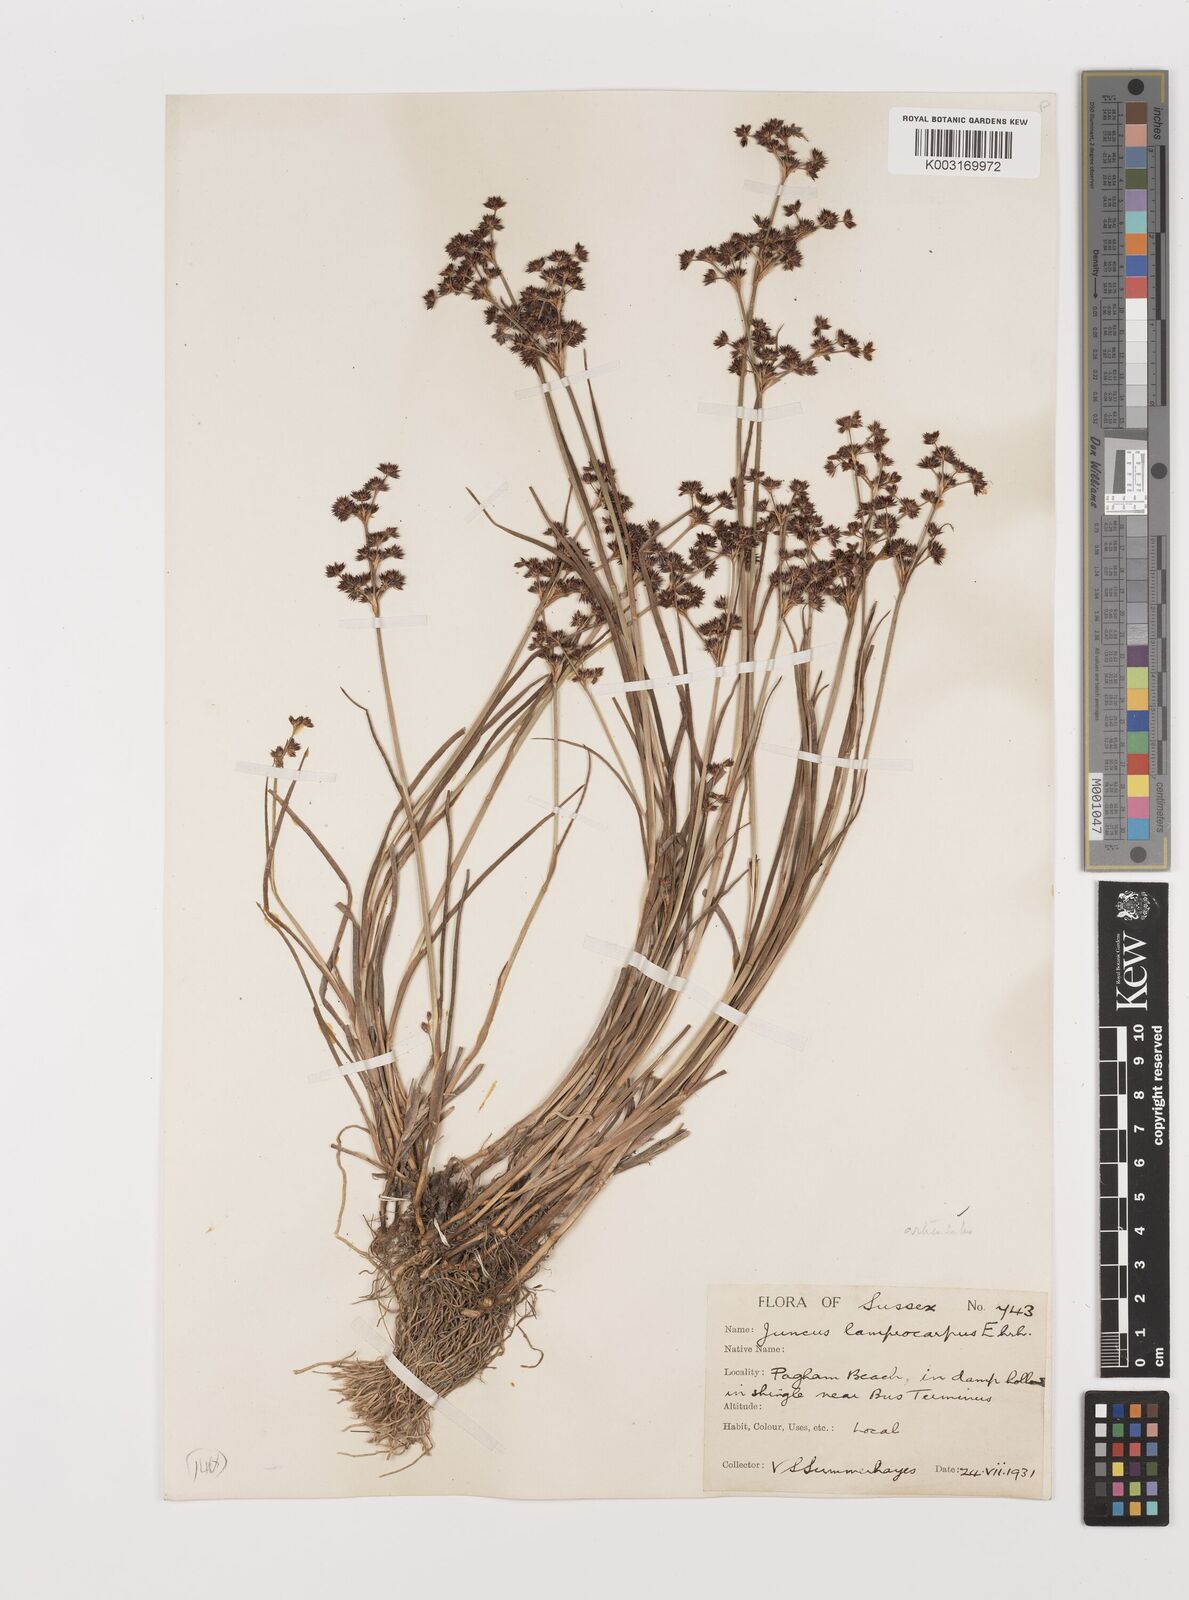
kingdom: Plantae
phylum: Tracheophyta
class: Liliopsida
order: Poales
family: Juncaceae
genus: Juncus
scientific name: Juncus articulatus
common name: Jointed rush
